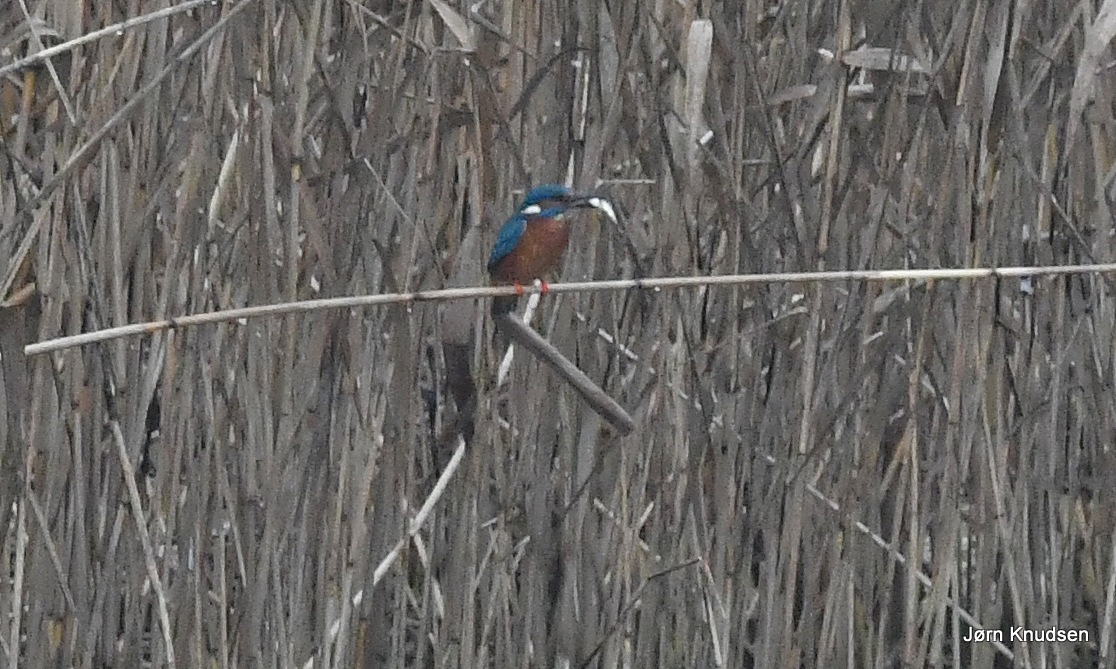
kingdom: Animalia
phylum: Chordata
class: Aves
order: Coraciiformes
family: Alcedinidae
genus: Alcedo
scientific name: Alcedo atthis
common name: Isfugl
